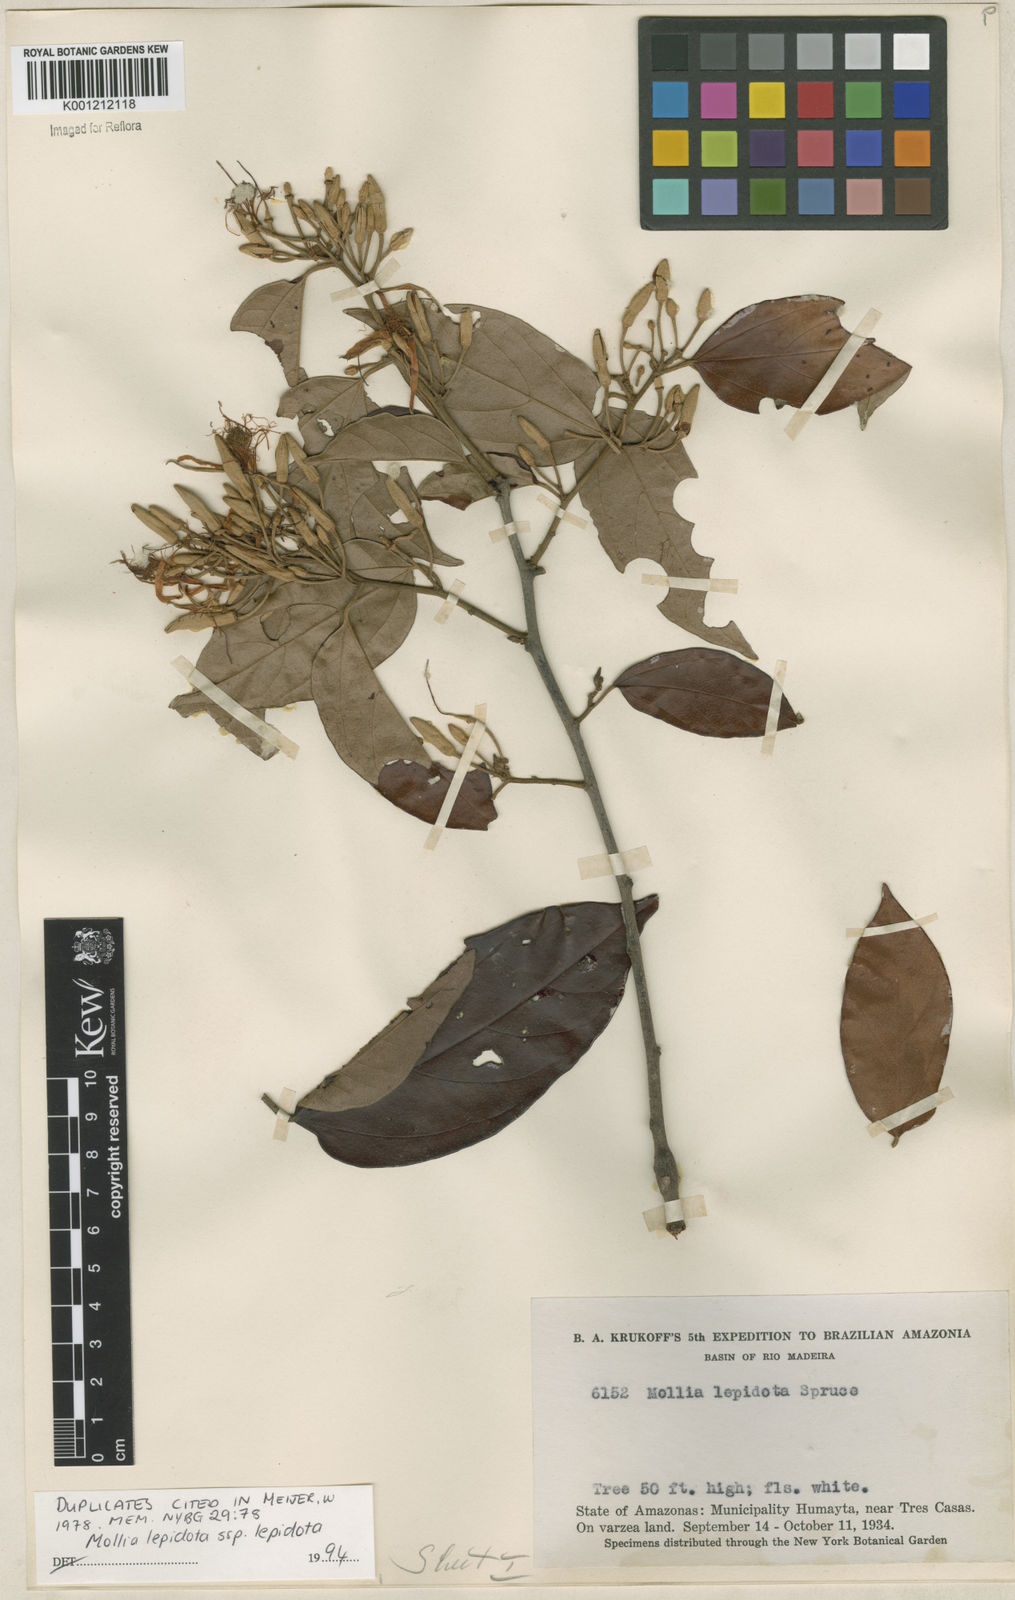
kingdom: Plantae
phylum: Tracheophyta
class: Magnoliopsida
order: Malvales
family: Malvaceae
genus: Mollia
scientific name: Mollia lepidota
